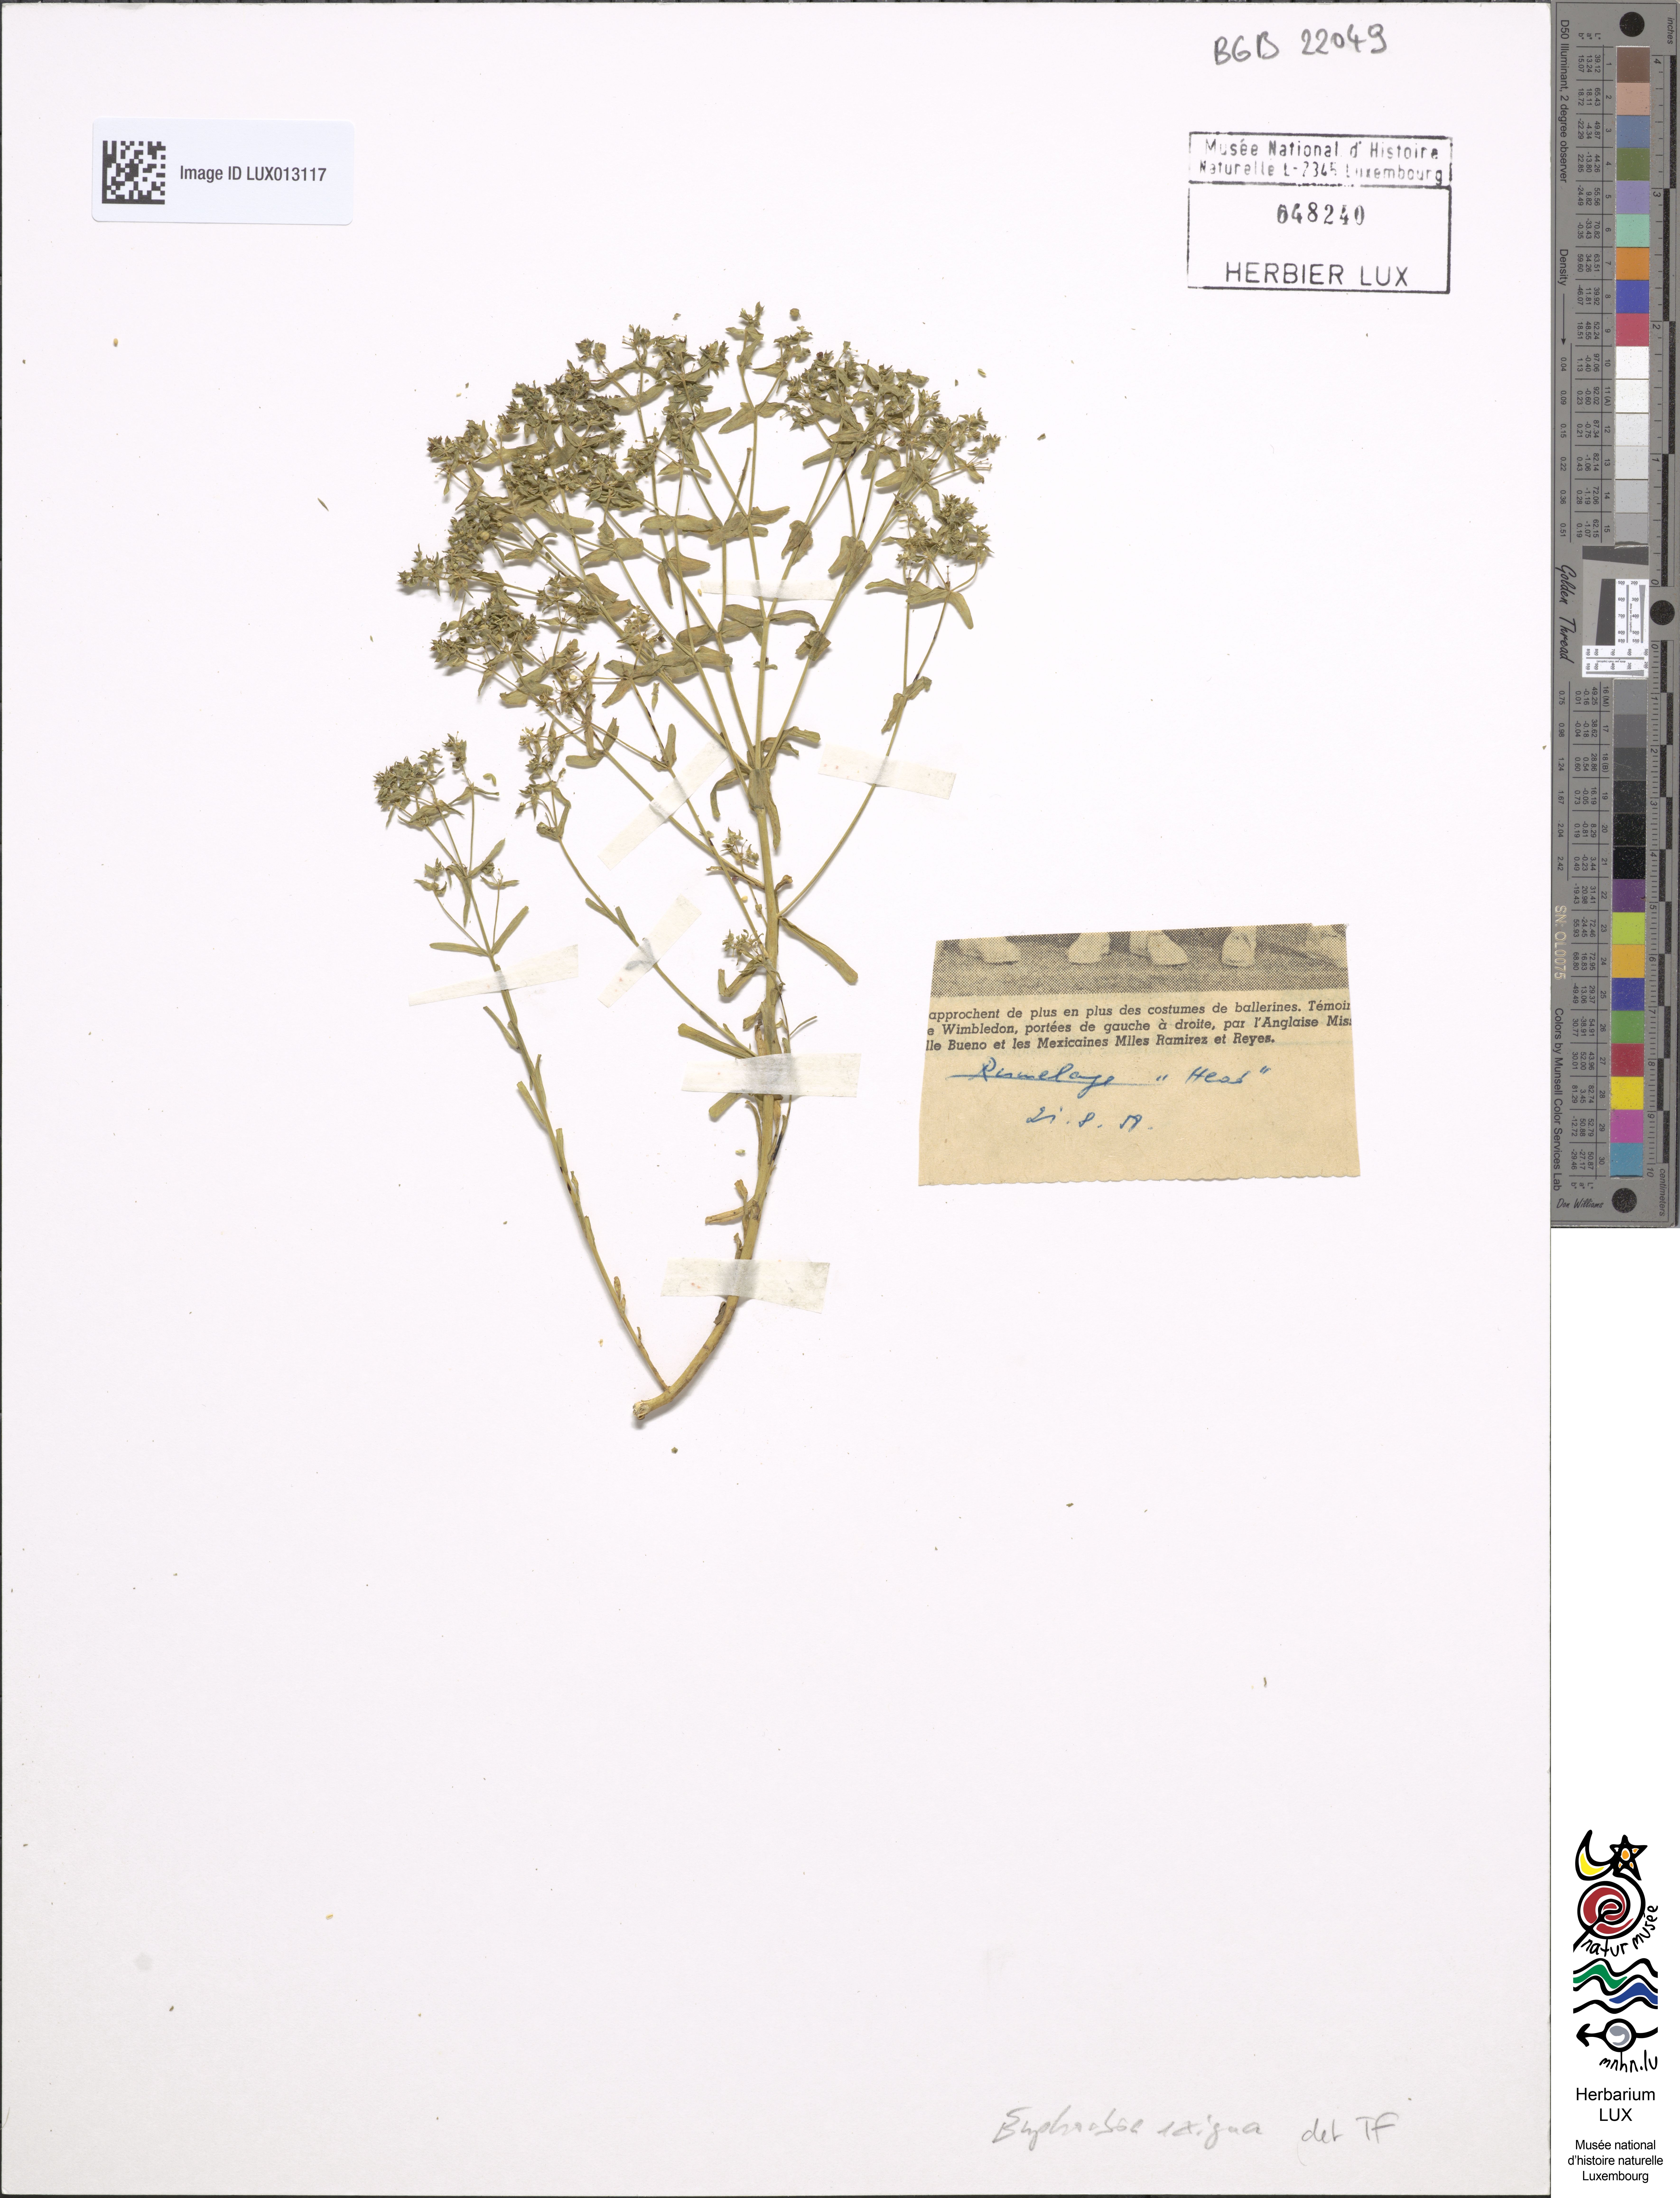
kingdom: Plantae
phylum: Tracheophyta
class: Magnoliopsida
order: Malpighiales
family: Euphorbiaceae
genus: Euphorbia
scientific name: Euphorbia exigua
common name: Dwarf spurge
